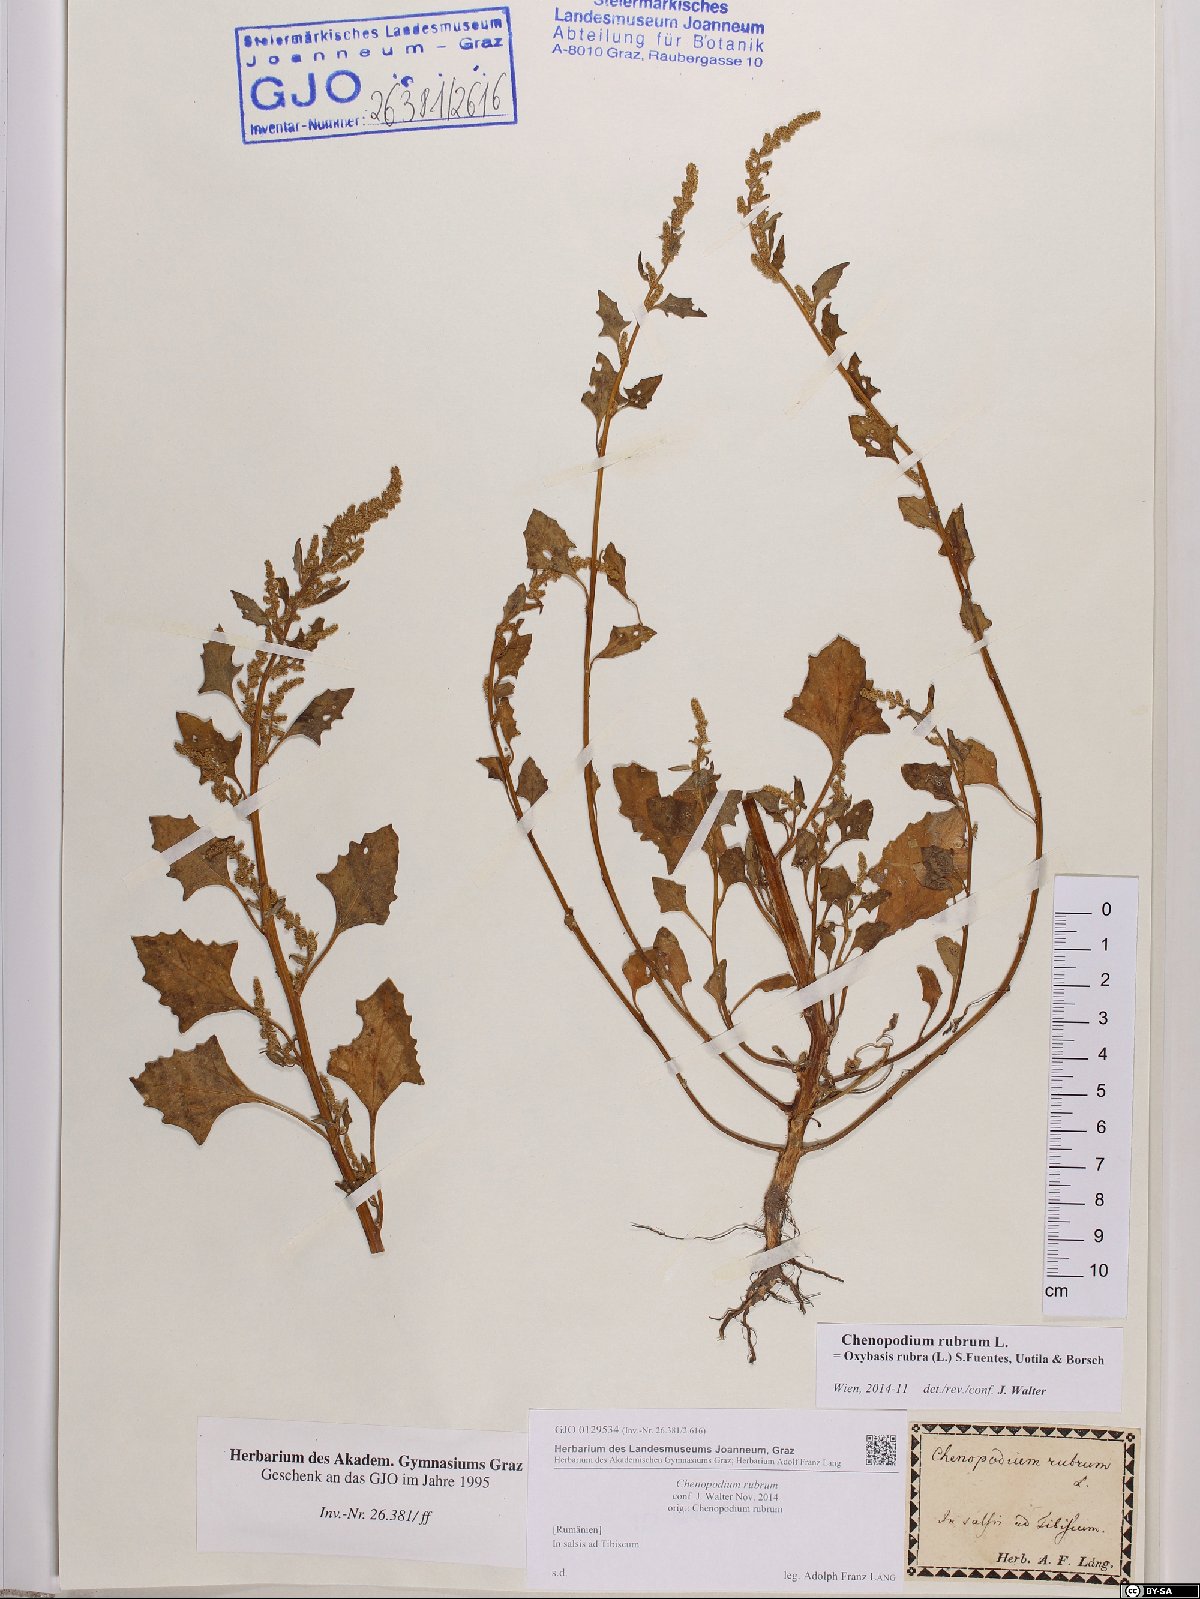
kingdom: Plantae
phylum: Tracheophyta
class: Magnoliopsida
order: Caryophyllales
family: Amaranthaceae
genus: Oxybasis
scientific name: Oxybasis rubra
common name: Red goosefoot
